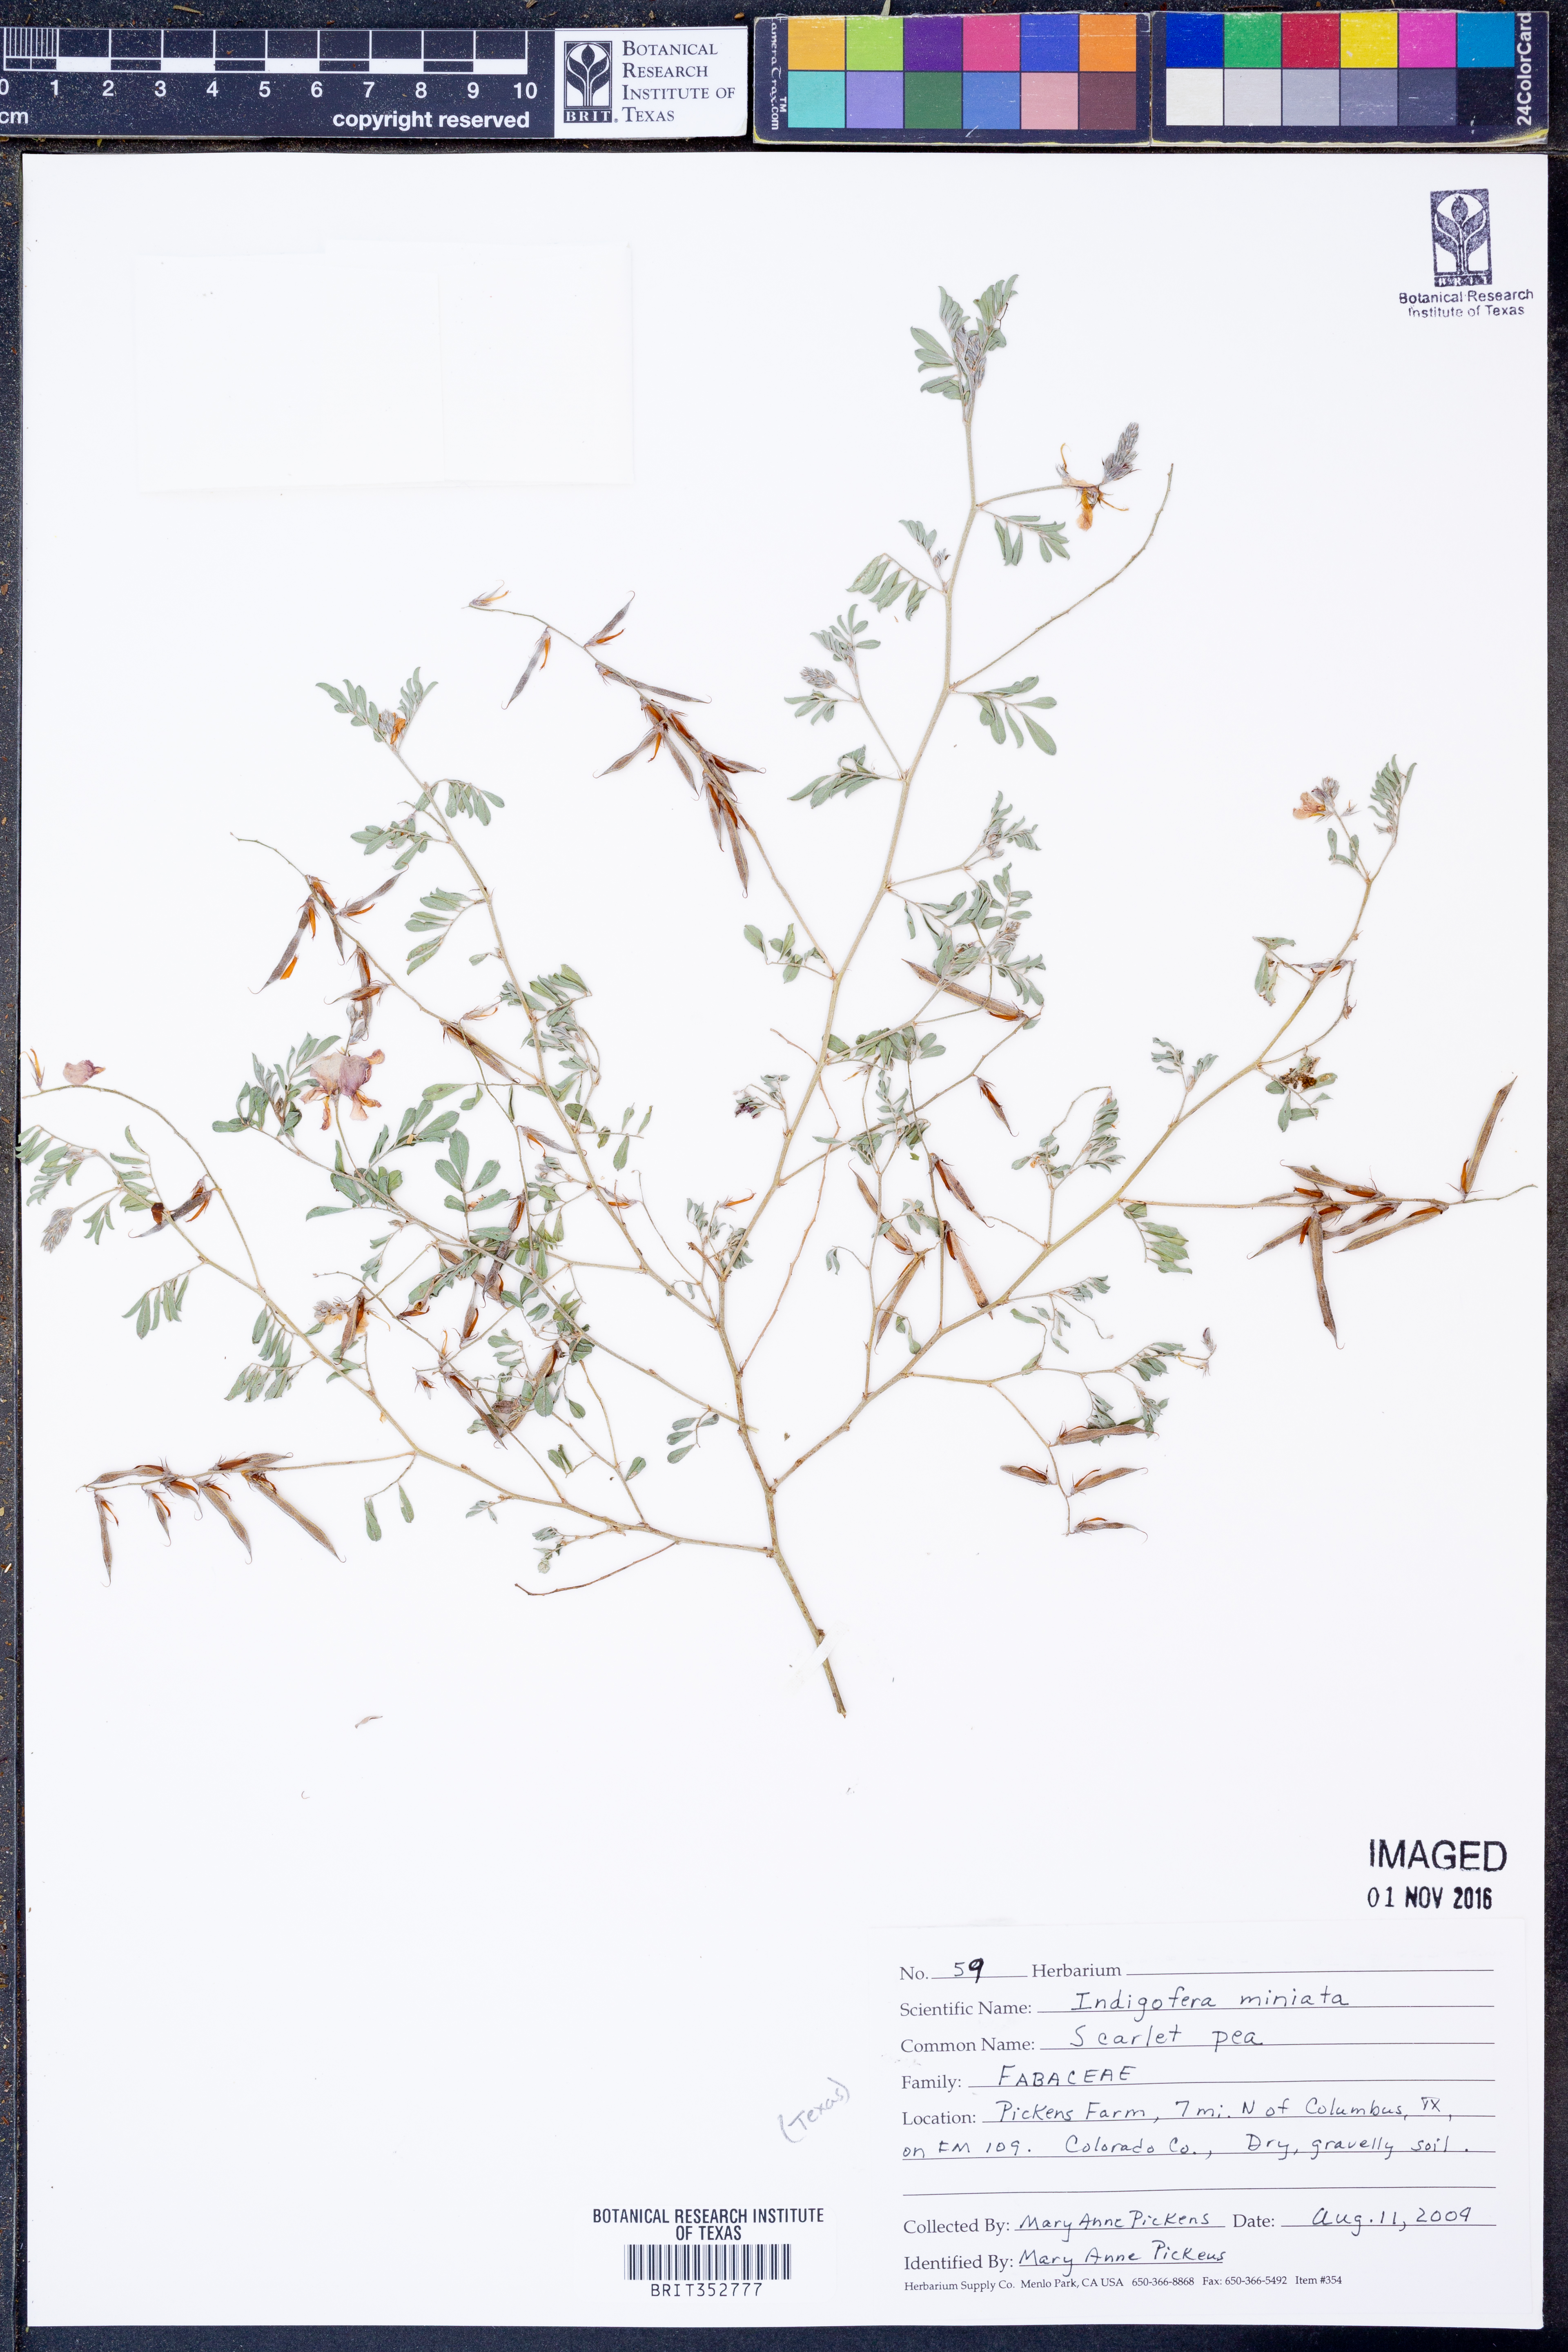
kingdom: Plantae
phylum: Tracheophyta
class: Magnoliopsida
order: Fabales
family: Fabaceae
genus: Indigofera
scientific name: Indigofera miniata
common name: Coast indigo
